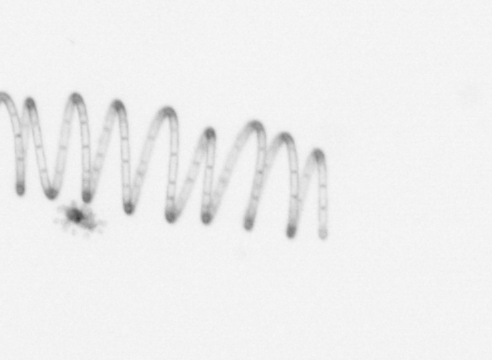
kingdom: Chromista
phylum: Ochrophyta
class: Bacillariophyceae
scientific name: Bacillariophyceae
